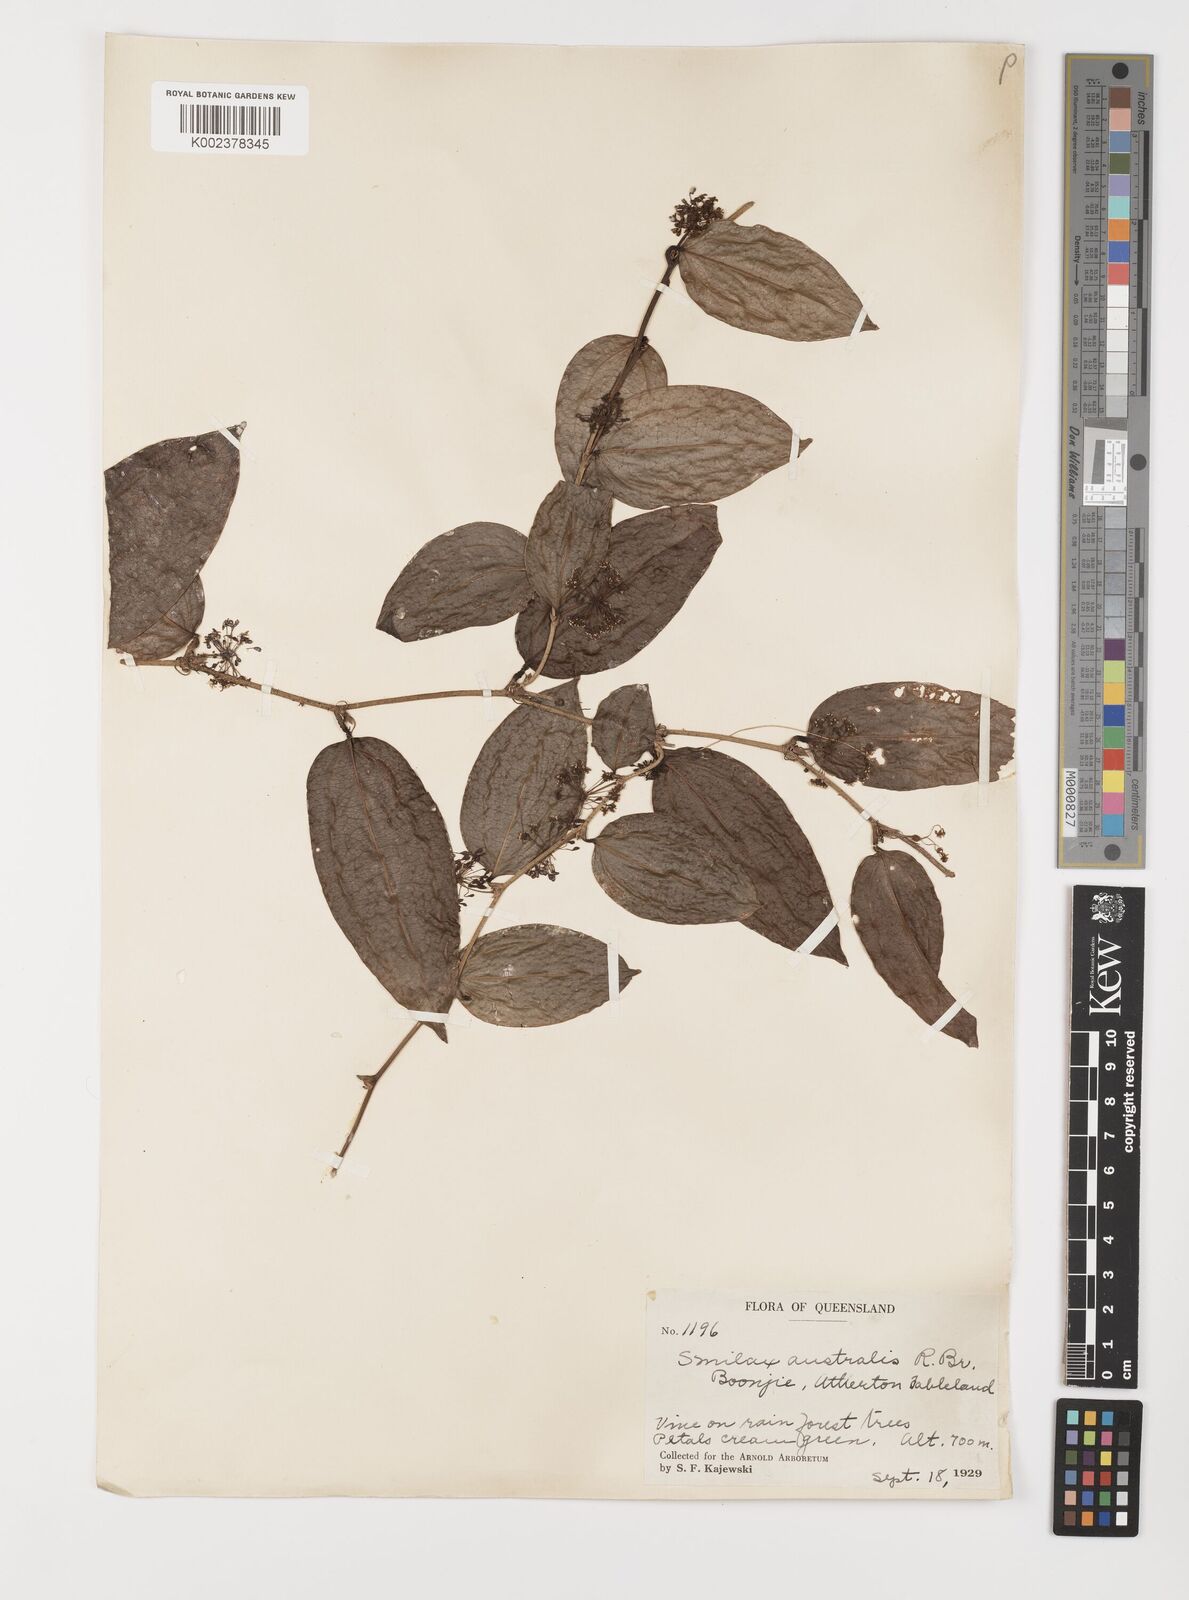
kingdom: Plantae
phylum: Tracheophyta
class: Liliopsida
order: Liliales
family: Smilacaceae
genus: Smilax
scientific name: Smilax australis
